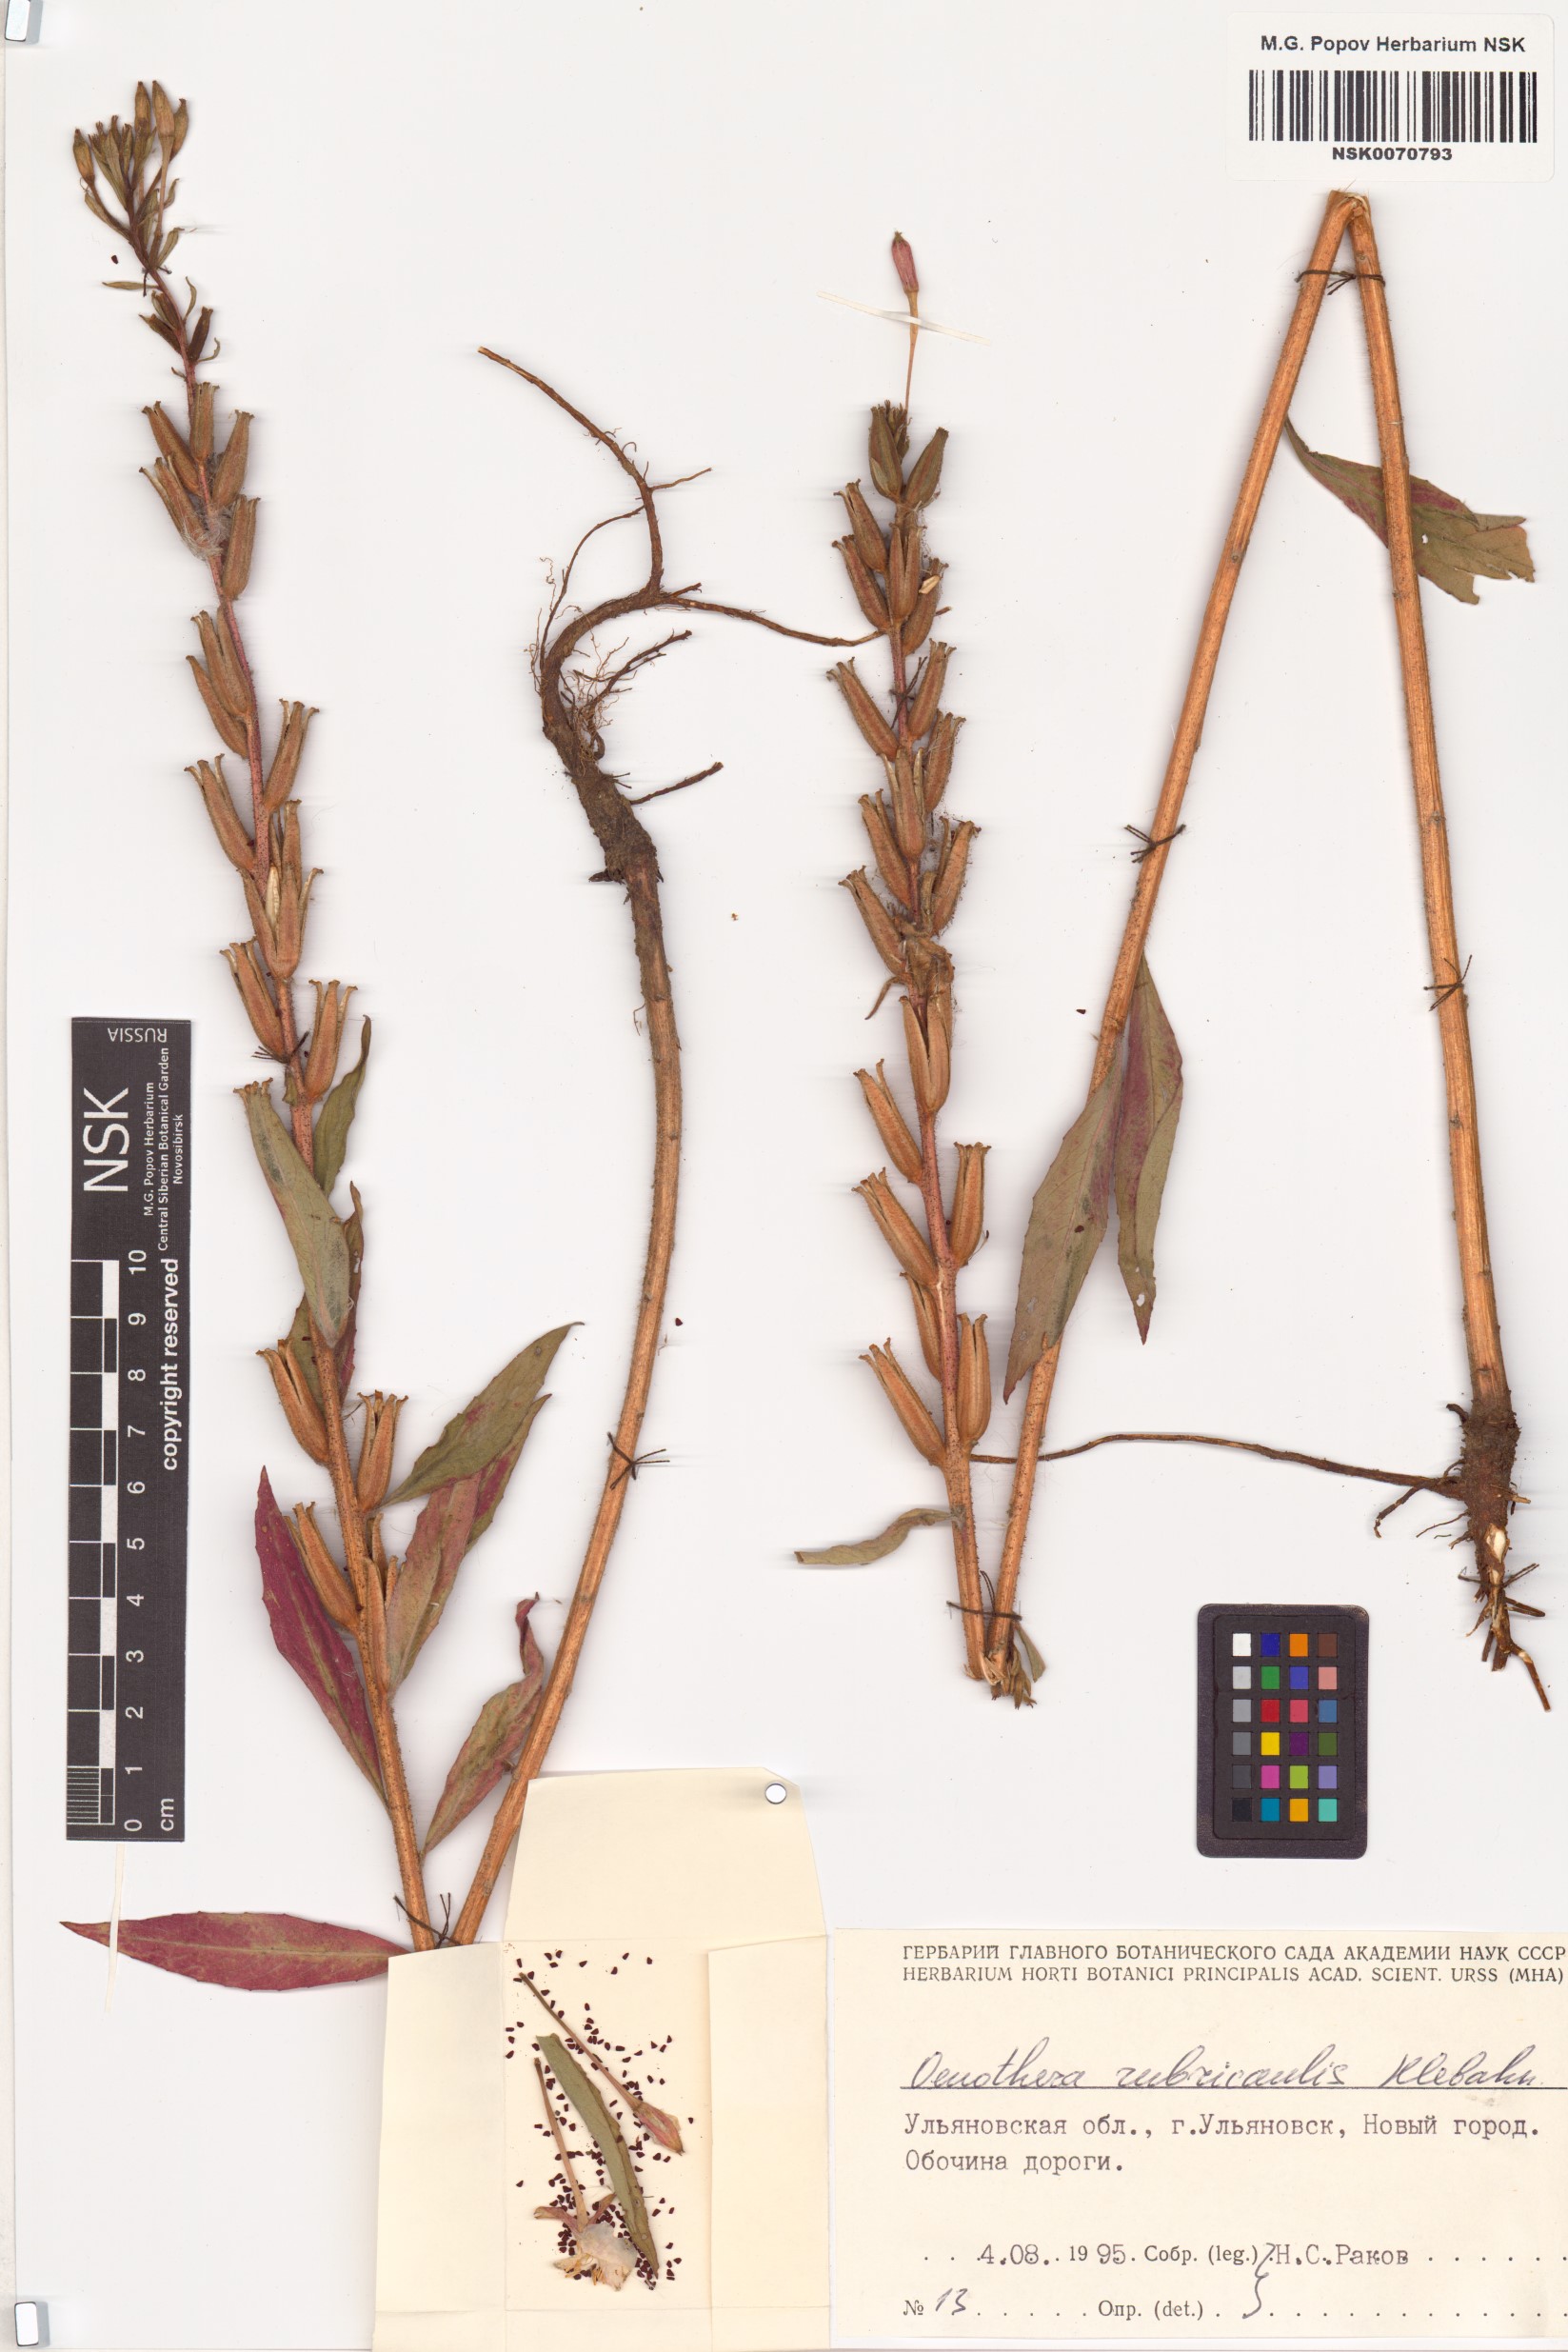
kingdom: Plantae
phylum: Tracheophyta
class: Magnoliopsida
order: Myrtales
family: Onagraceae
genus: Oenothera
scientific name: Oenothera rubricaulis
